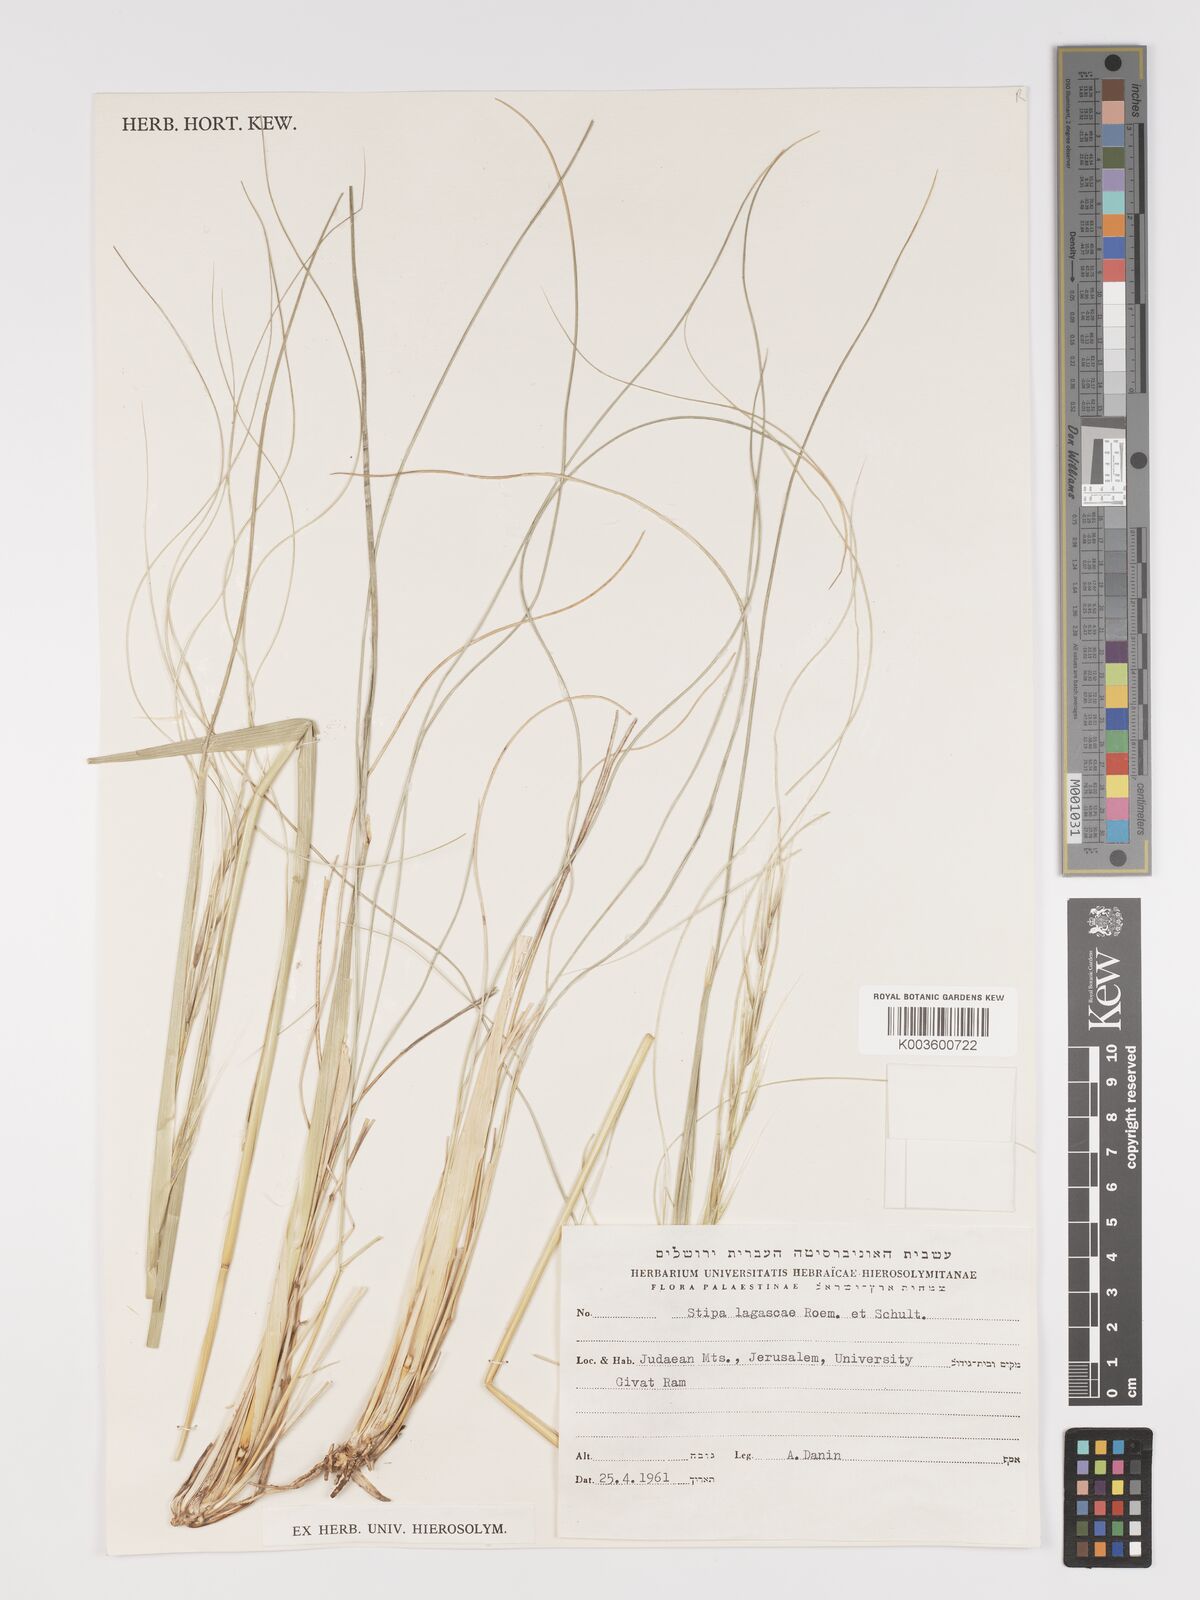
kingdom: Plantae
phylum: Tracheophyta
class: Liliopsida
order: Poales
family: Poaceae
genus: Stipa
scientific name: Stipa holosericea
